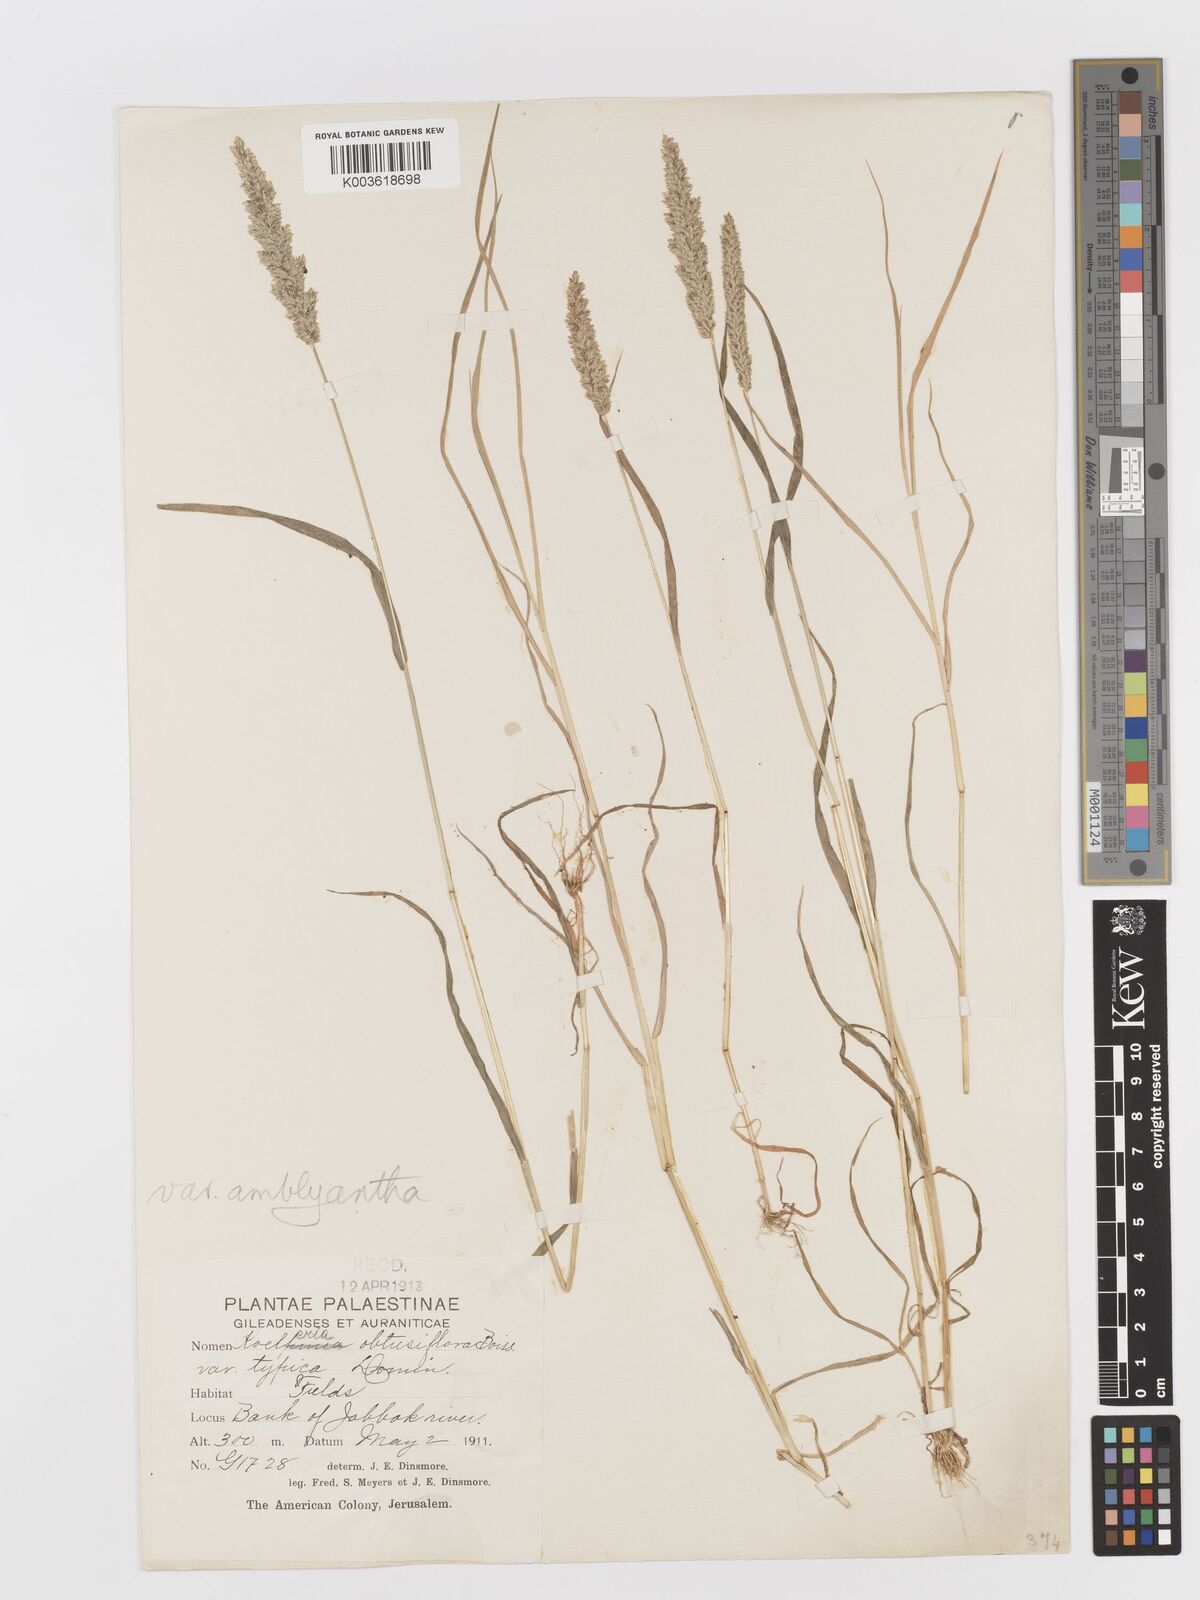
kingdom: Plantae
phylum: Tracheophyta
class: Liliopsida
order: Poales
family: Poaceae
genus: Rostraria
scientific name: Rostraria obtusiflora
